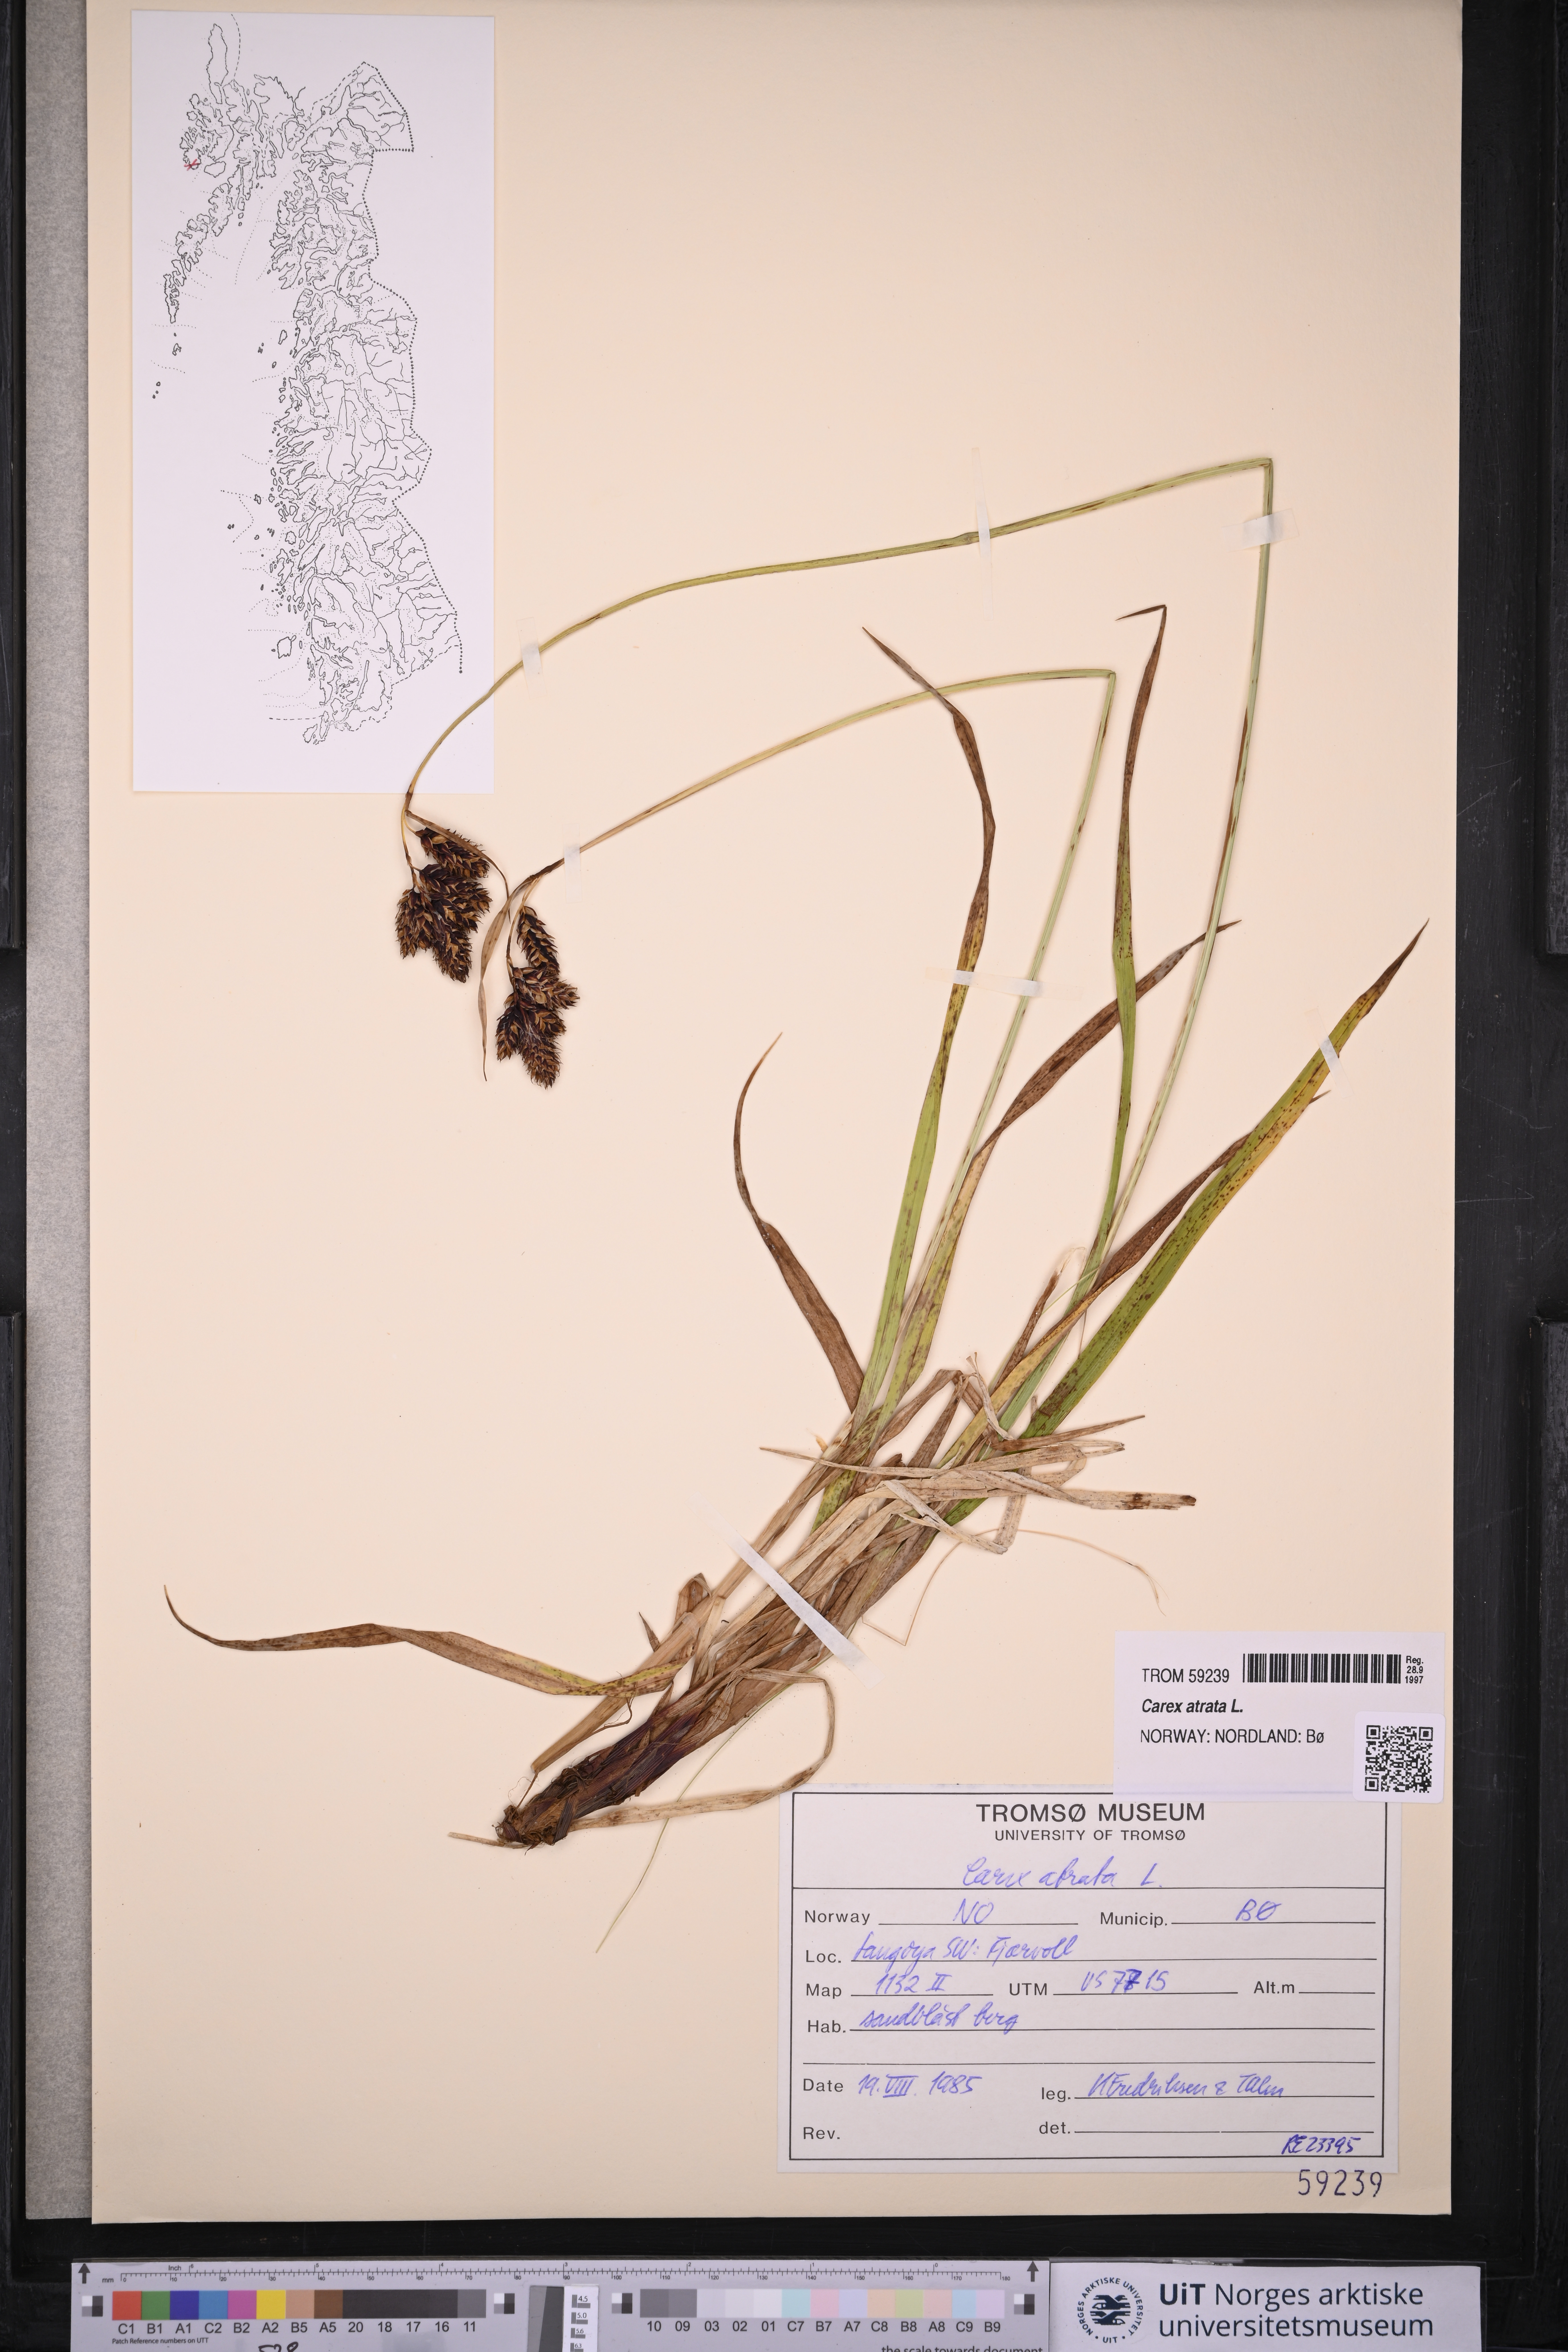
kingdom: Plantae
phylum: Tracheophyta
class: Liliopsida
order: Poales
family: Cyperaceae
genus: Carex
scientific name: Carex atrata
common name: Black alpine sedge
